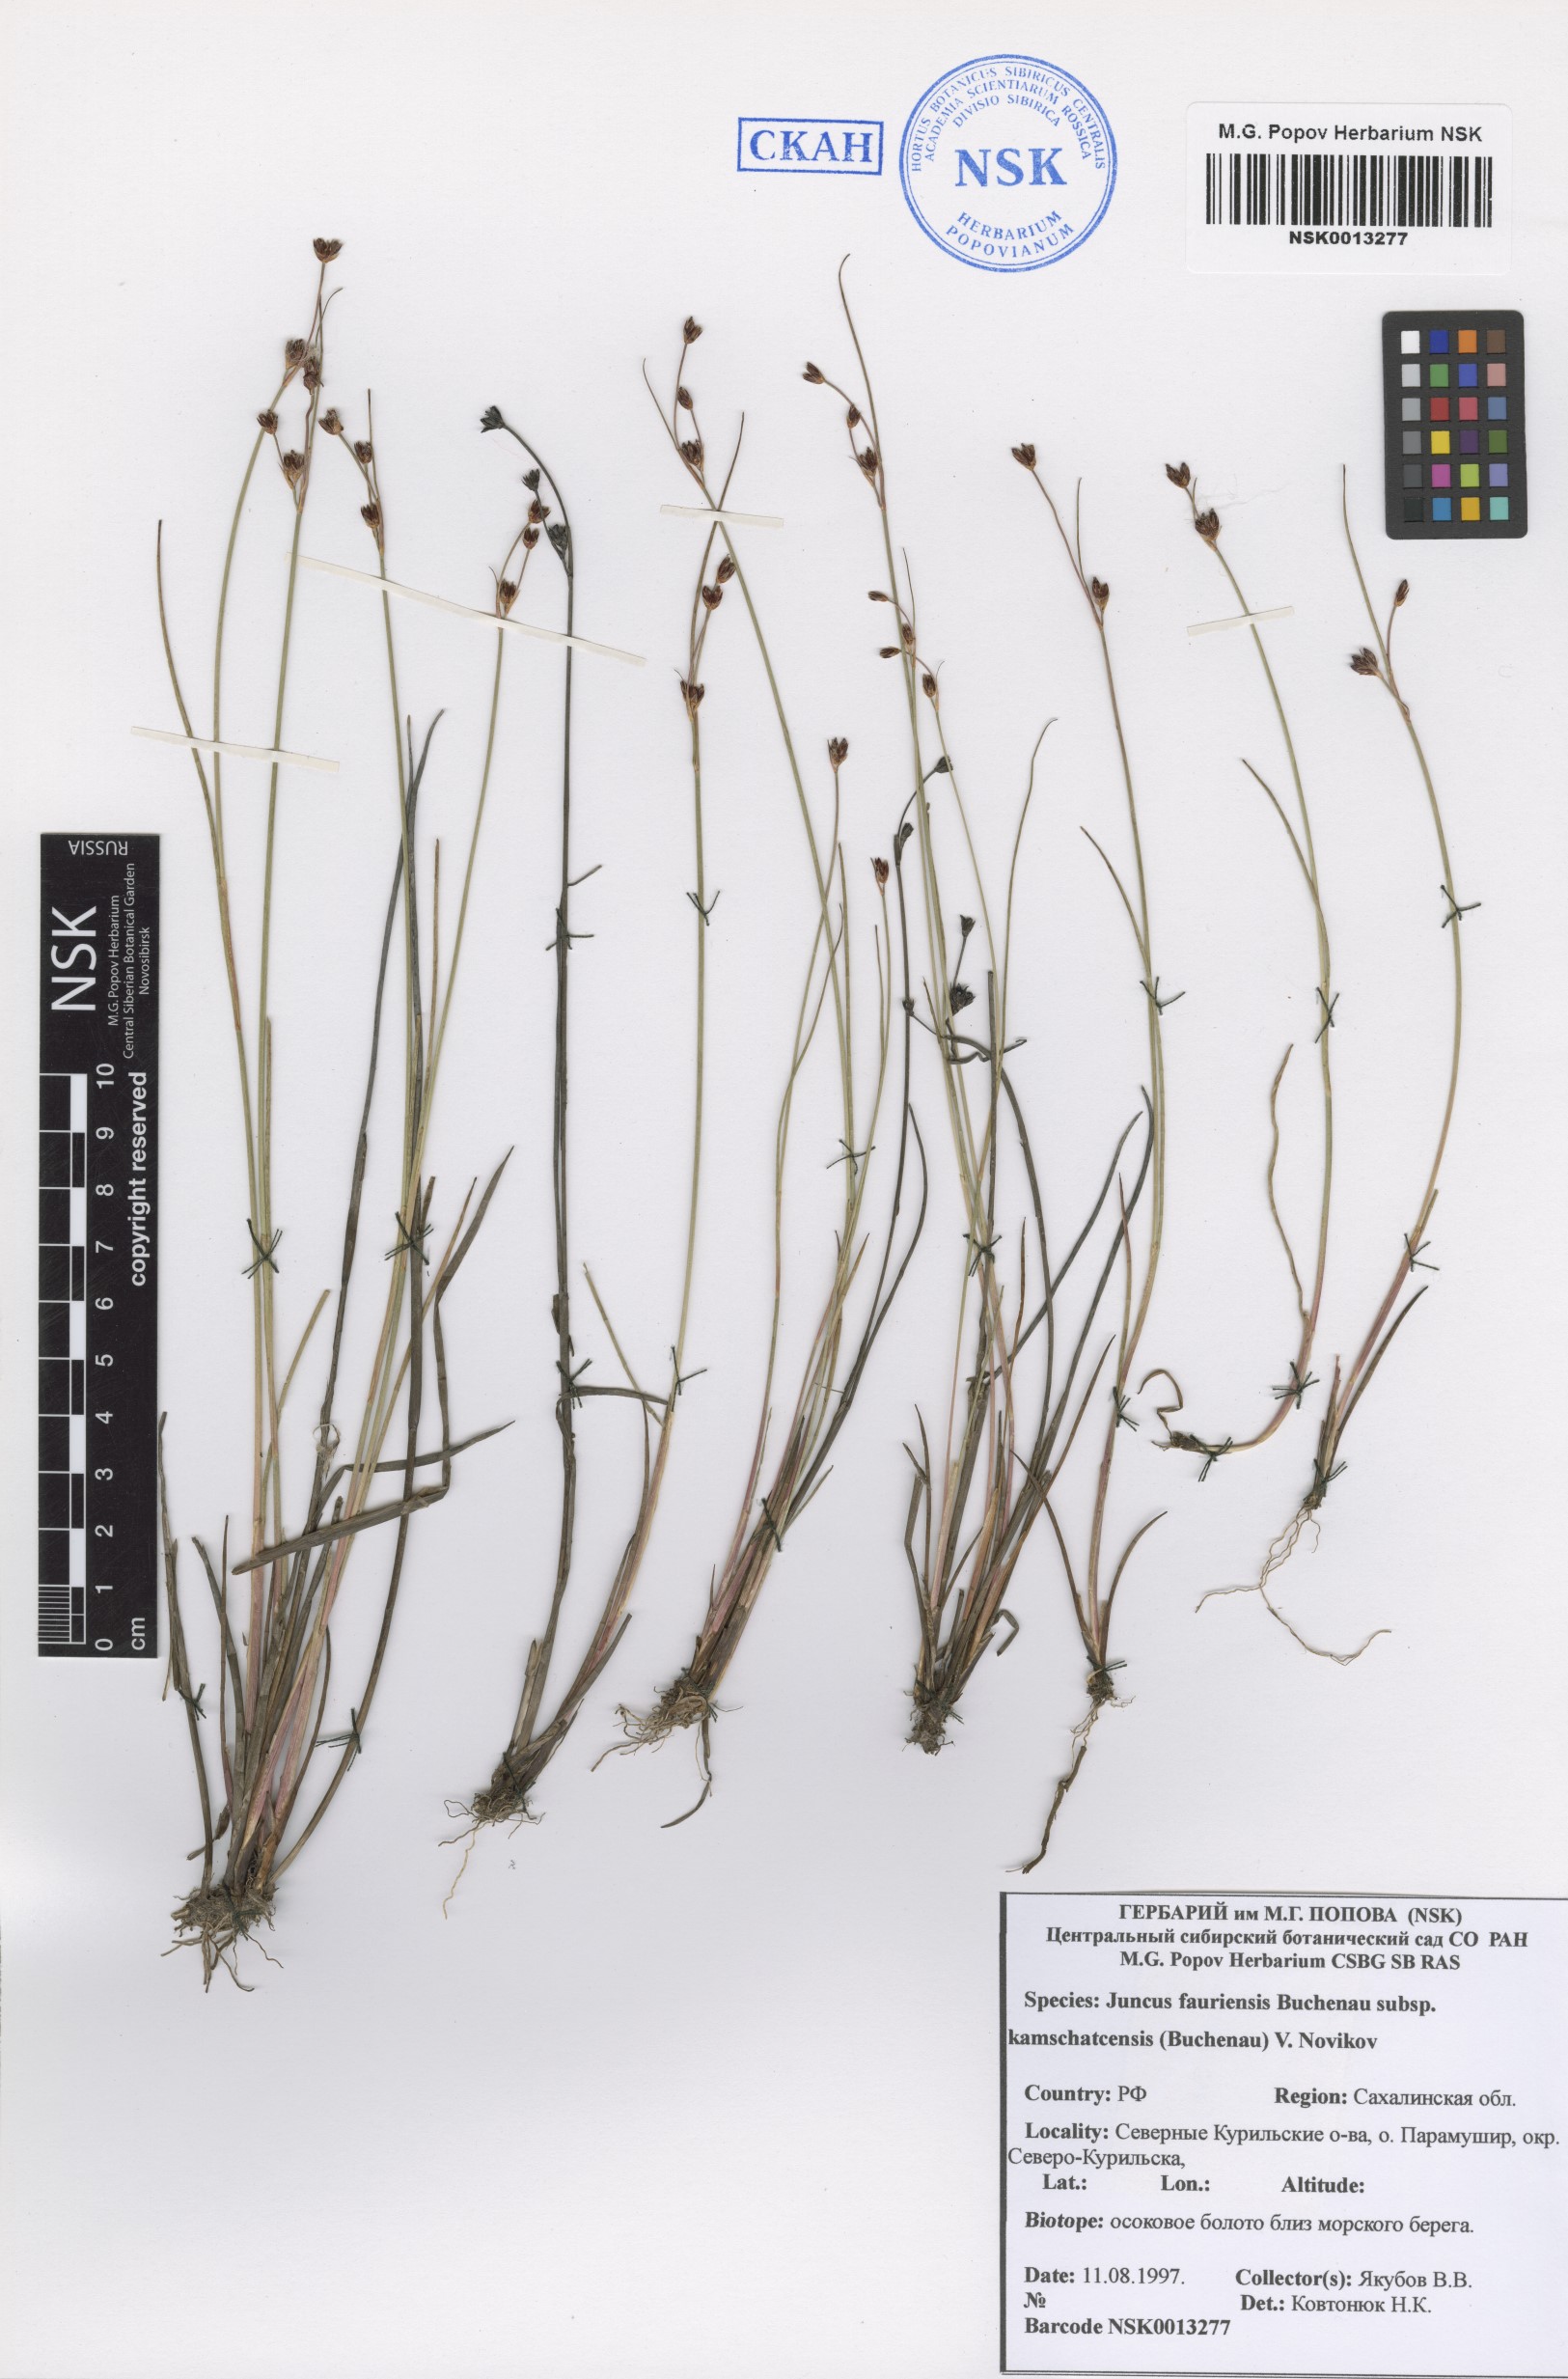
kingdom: Plantae
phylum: Tracheophyta
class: Liliopsida
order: Poales
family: Juncaceae
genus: Juncus
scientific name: Juncus fauriensis
